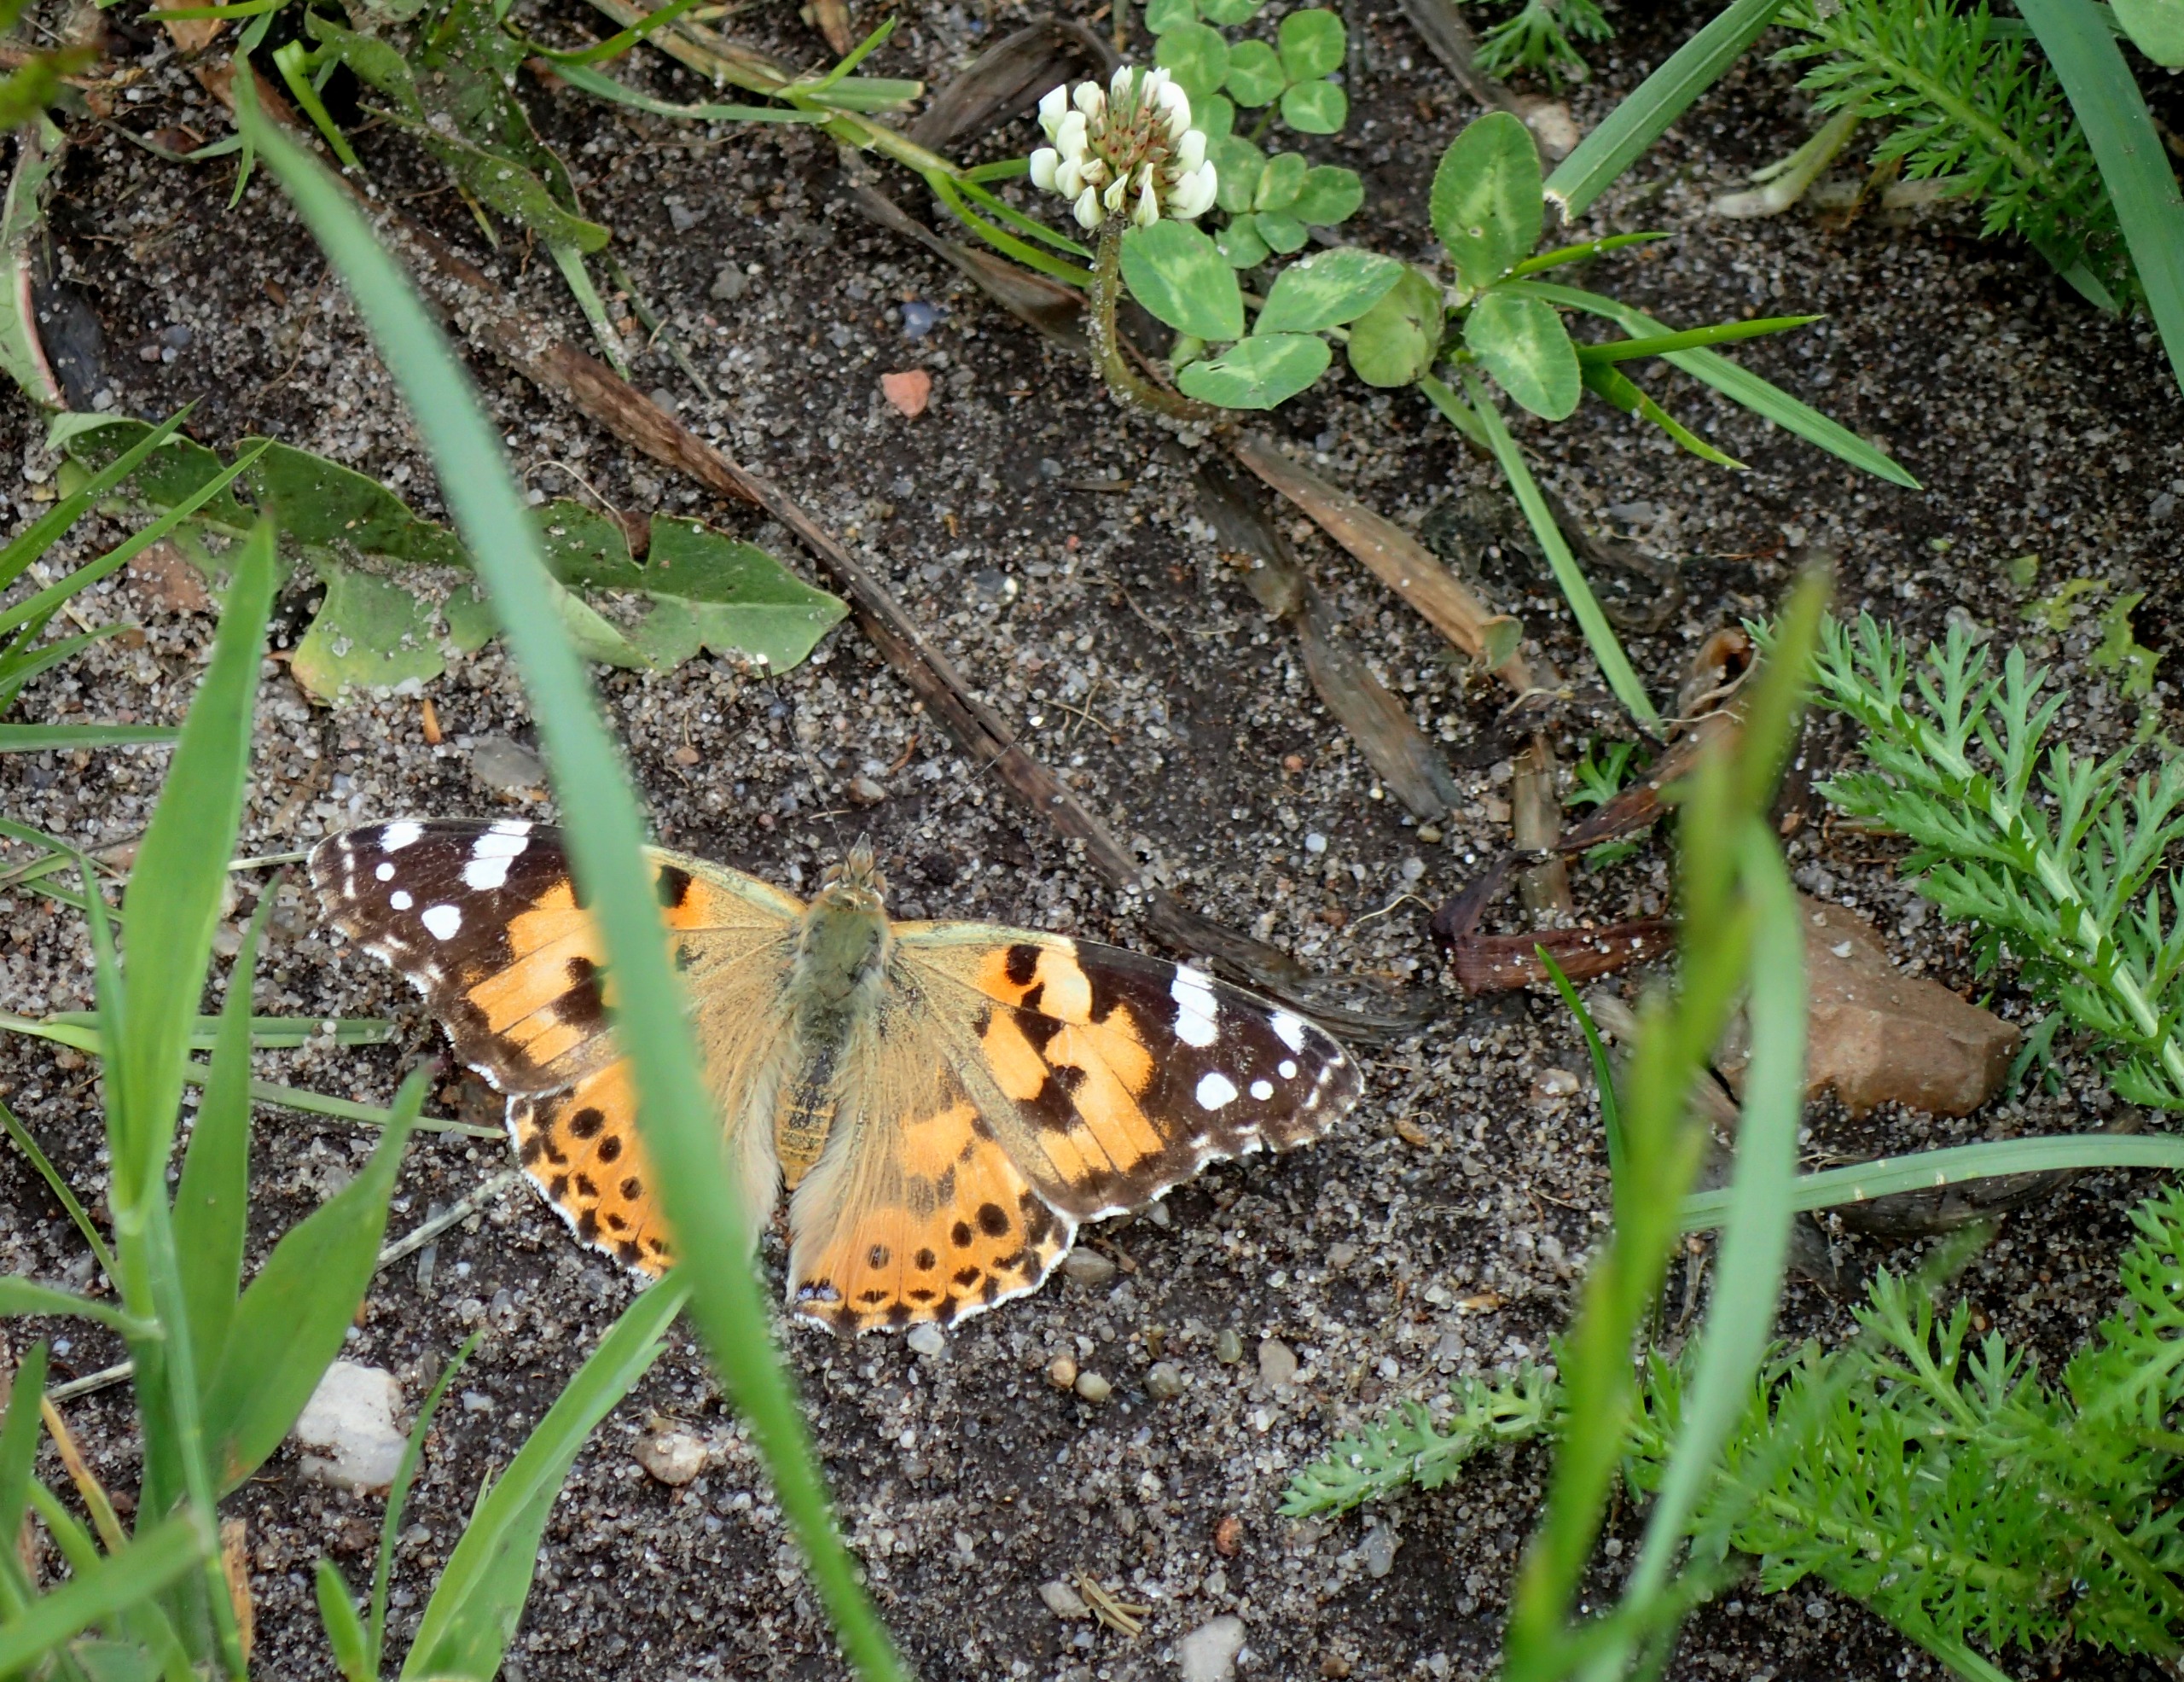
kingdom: Animalia
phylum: Arthropoda
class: Insecta
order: Lepidoptera
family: Nymphalidae
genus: Vanessa
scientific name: Vanessa cardui
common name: Tidselsommerfugl
